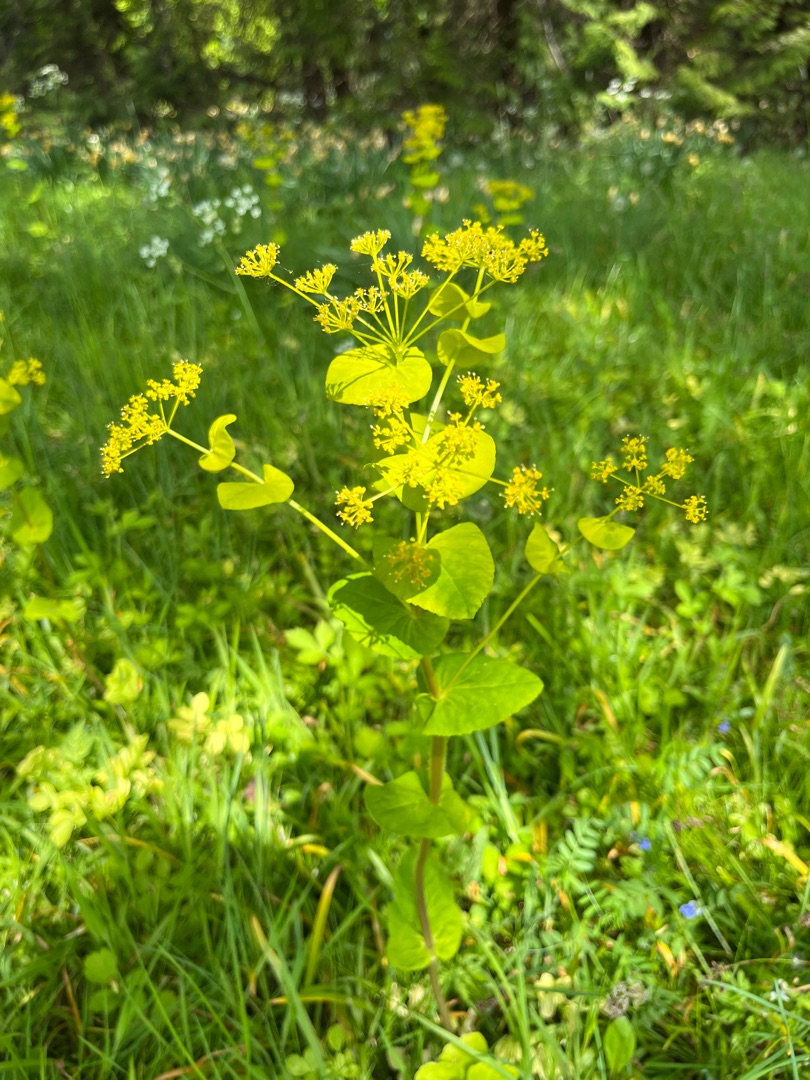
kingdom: Plantae
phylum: Tracheophyta
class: Magnoliopsida
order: Apiales
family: Apiaceae
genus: Smyrnium
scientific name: Smyrnium perfoliatum
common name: Lundgylden
